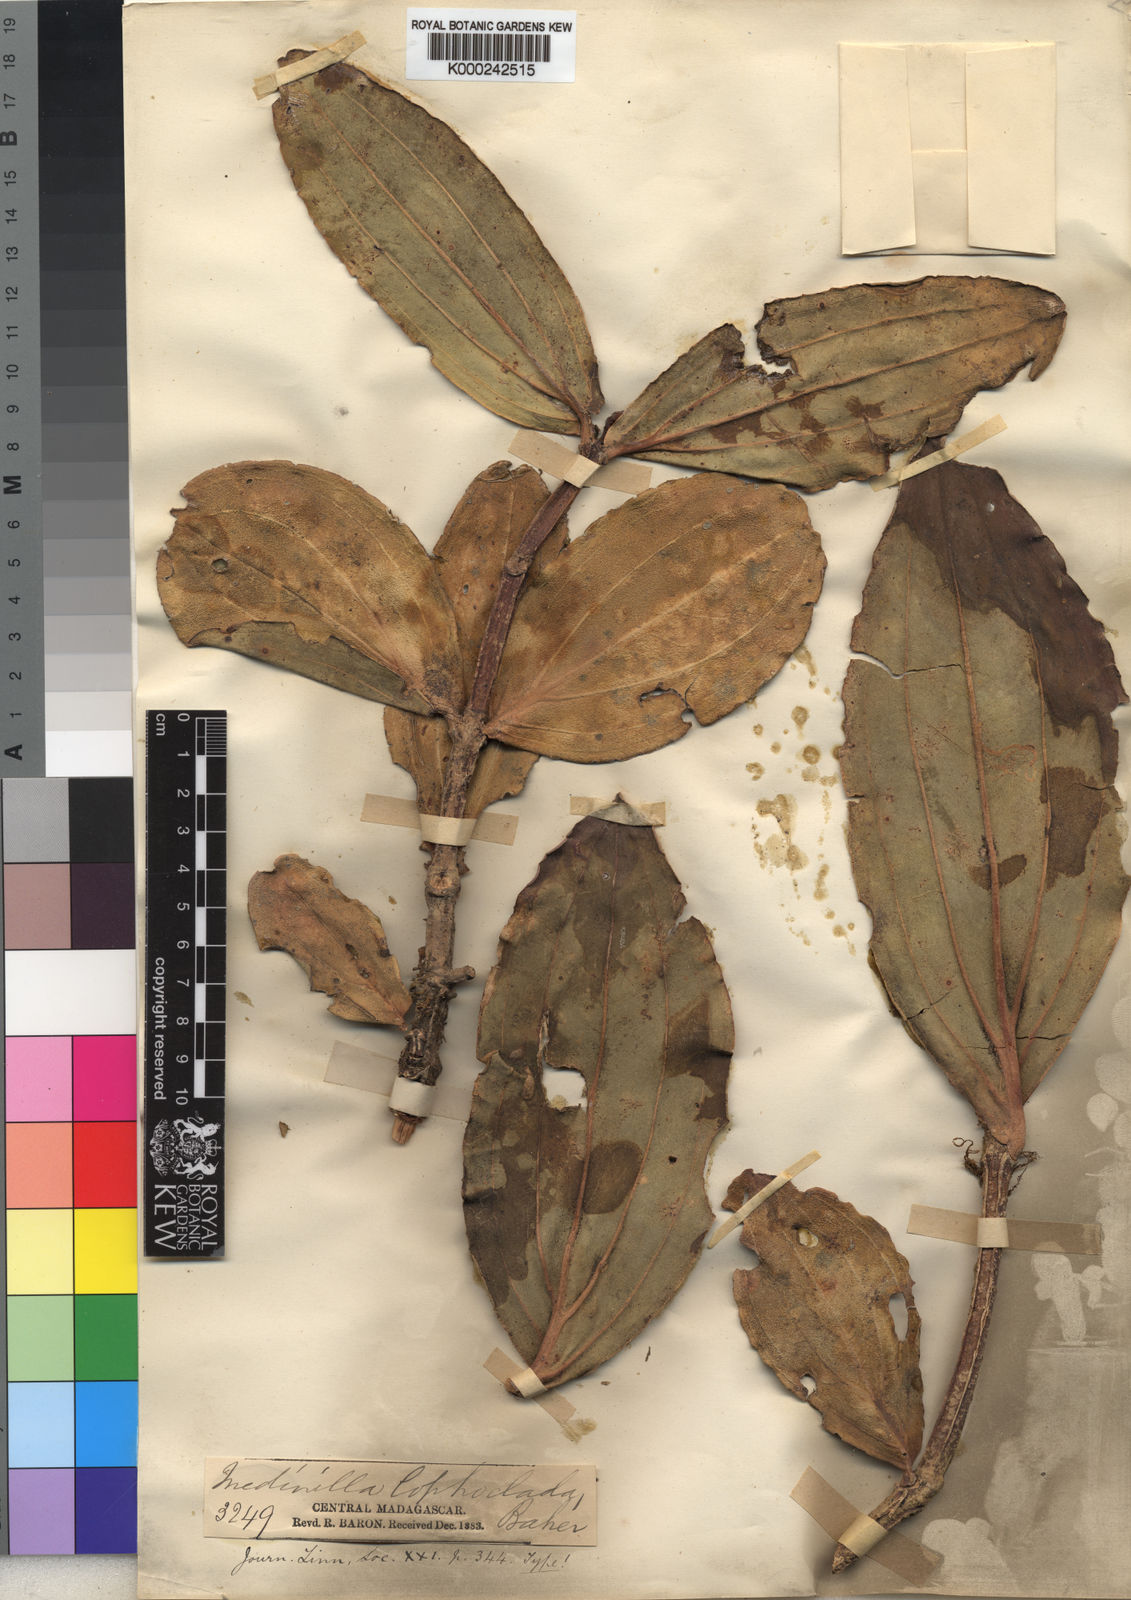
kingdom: Plantae
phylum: Tracheophyta
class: Magnoliopsida
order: Myrtales
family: Melastomataceae
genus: Medinilla
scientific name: Medinilla lophoclada
